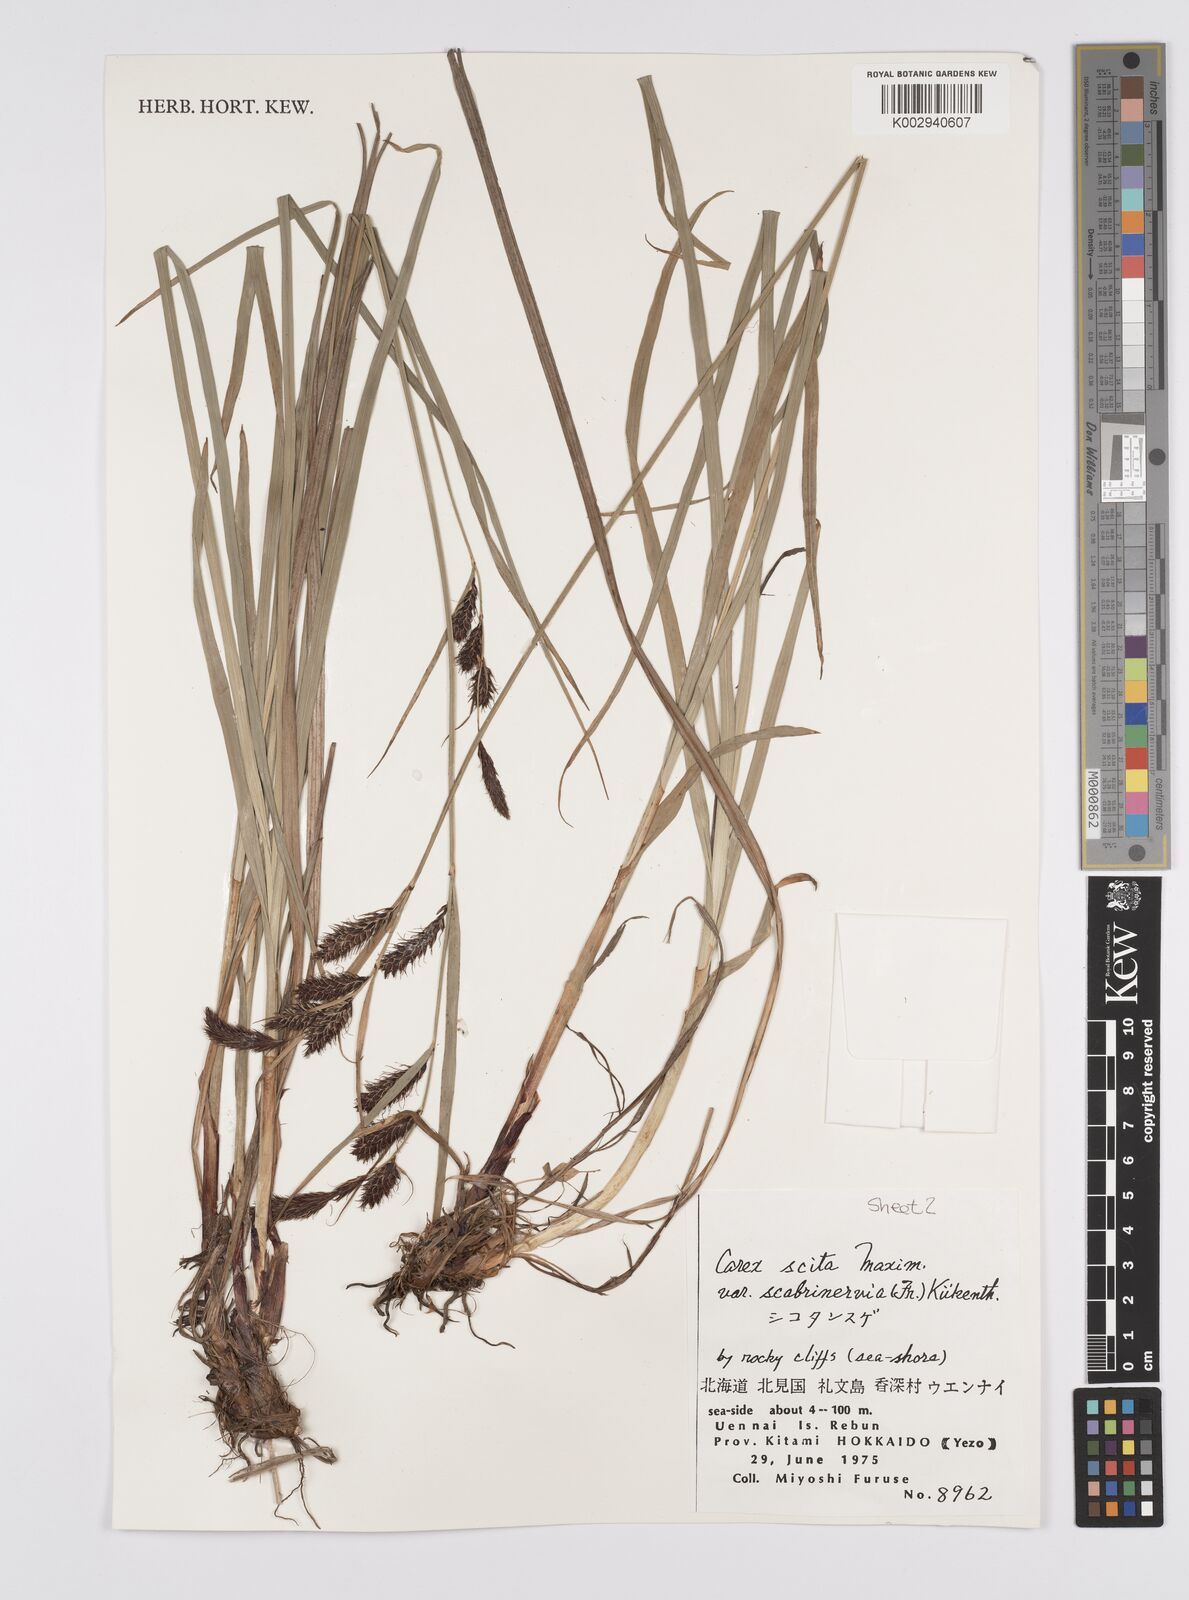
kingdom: Plantae
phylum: Tracheophyta
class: Liliopsida
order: Poales
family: Cyperaceae
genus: Carex
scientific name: Carex scita
